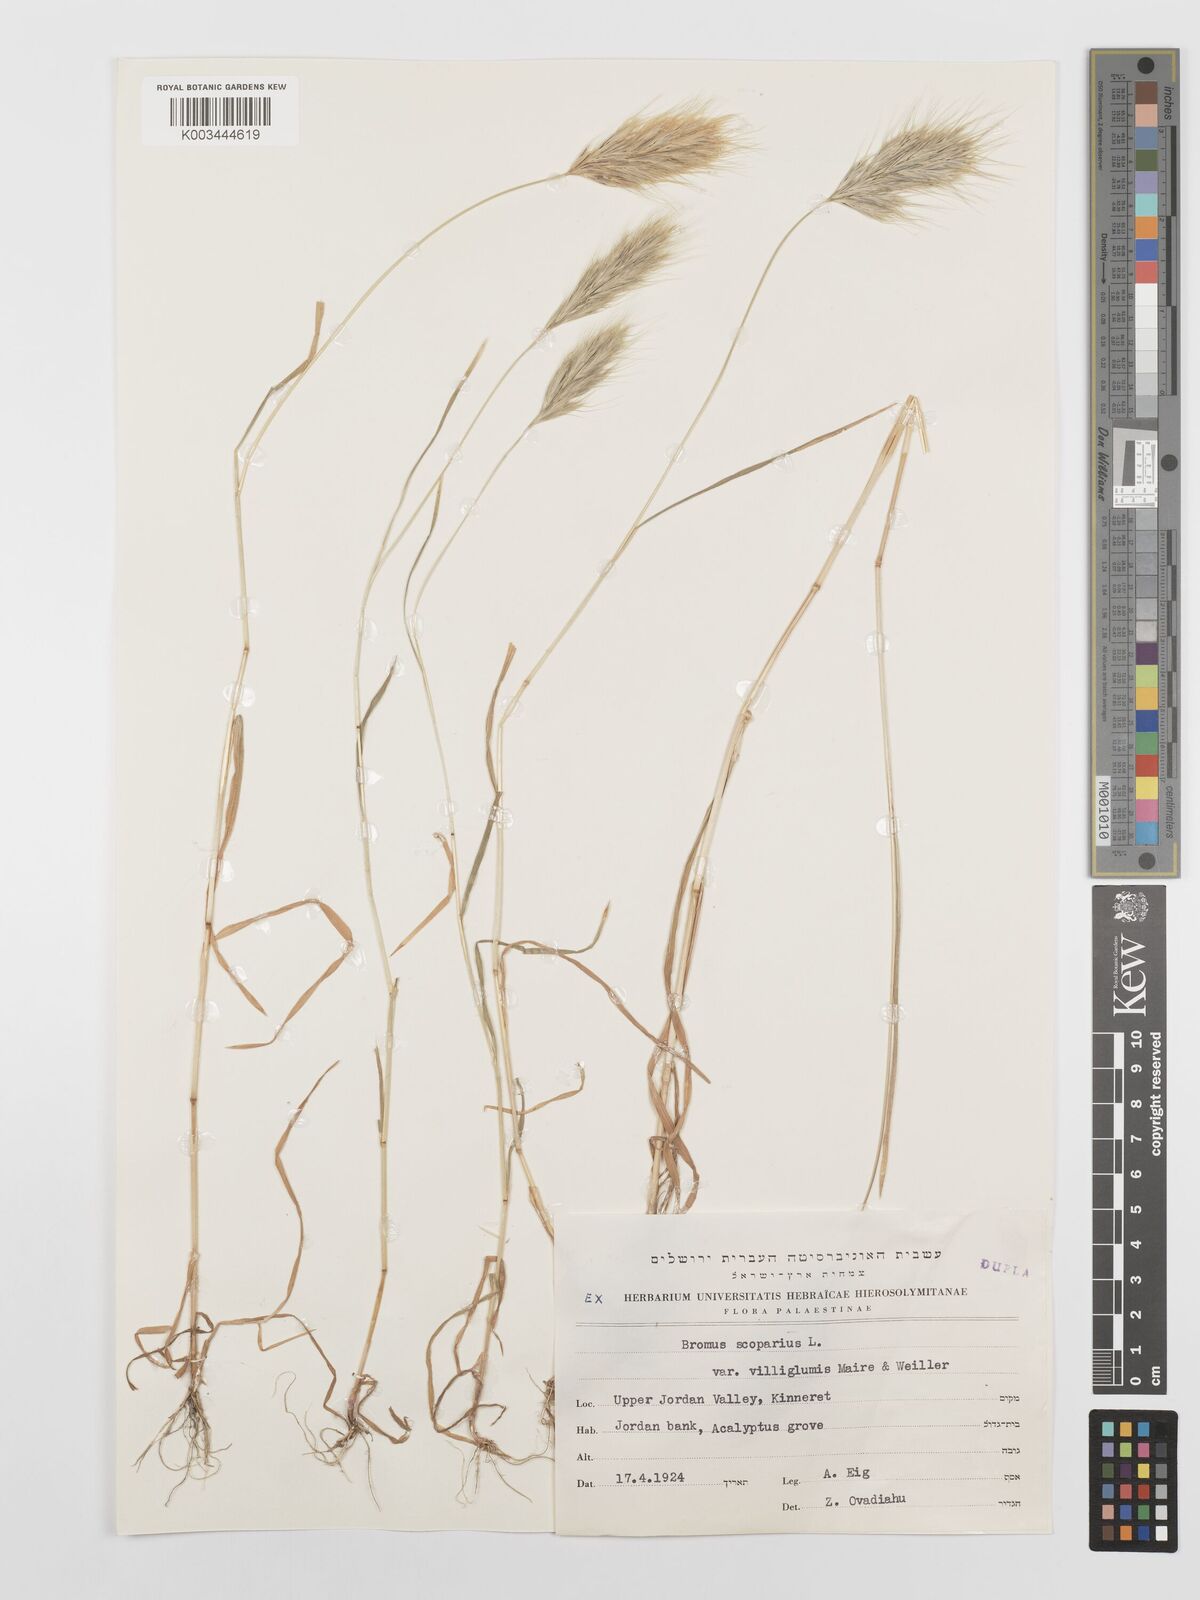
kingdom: Plantae
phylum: Tracheophyta
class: Liliopsida
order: Poales
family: Poaceae
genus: Bromus
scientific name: Bromus scoparius
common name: Broom brome
